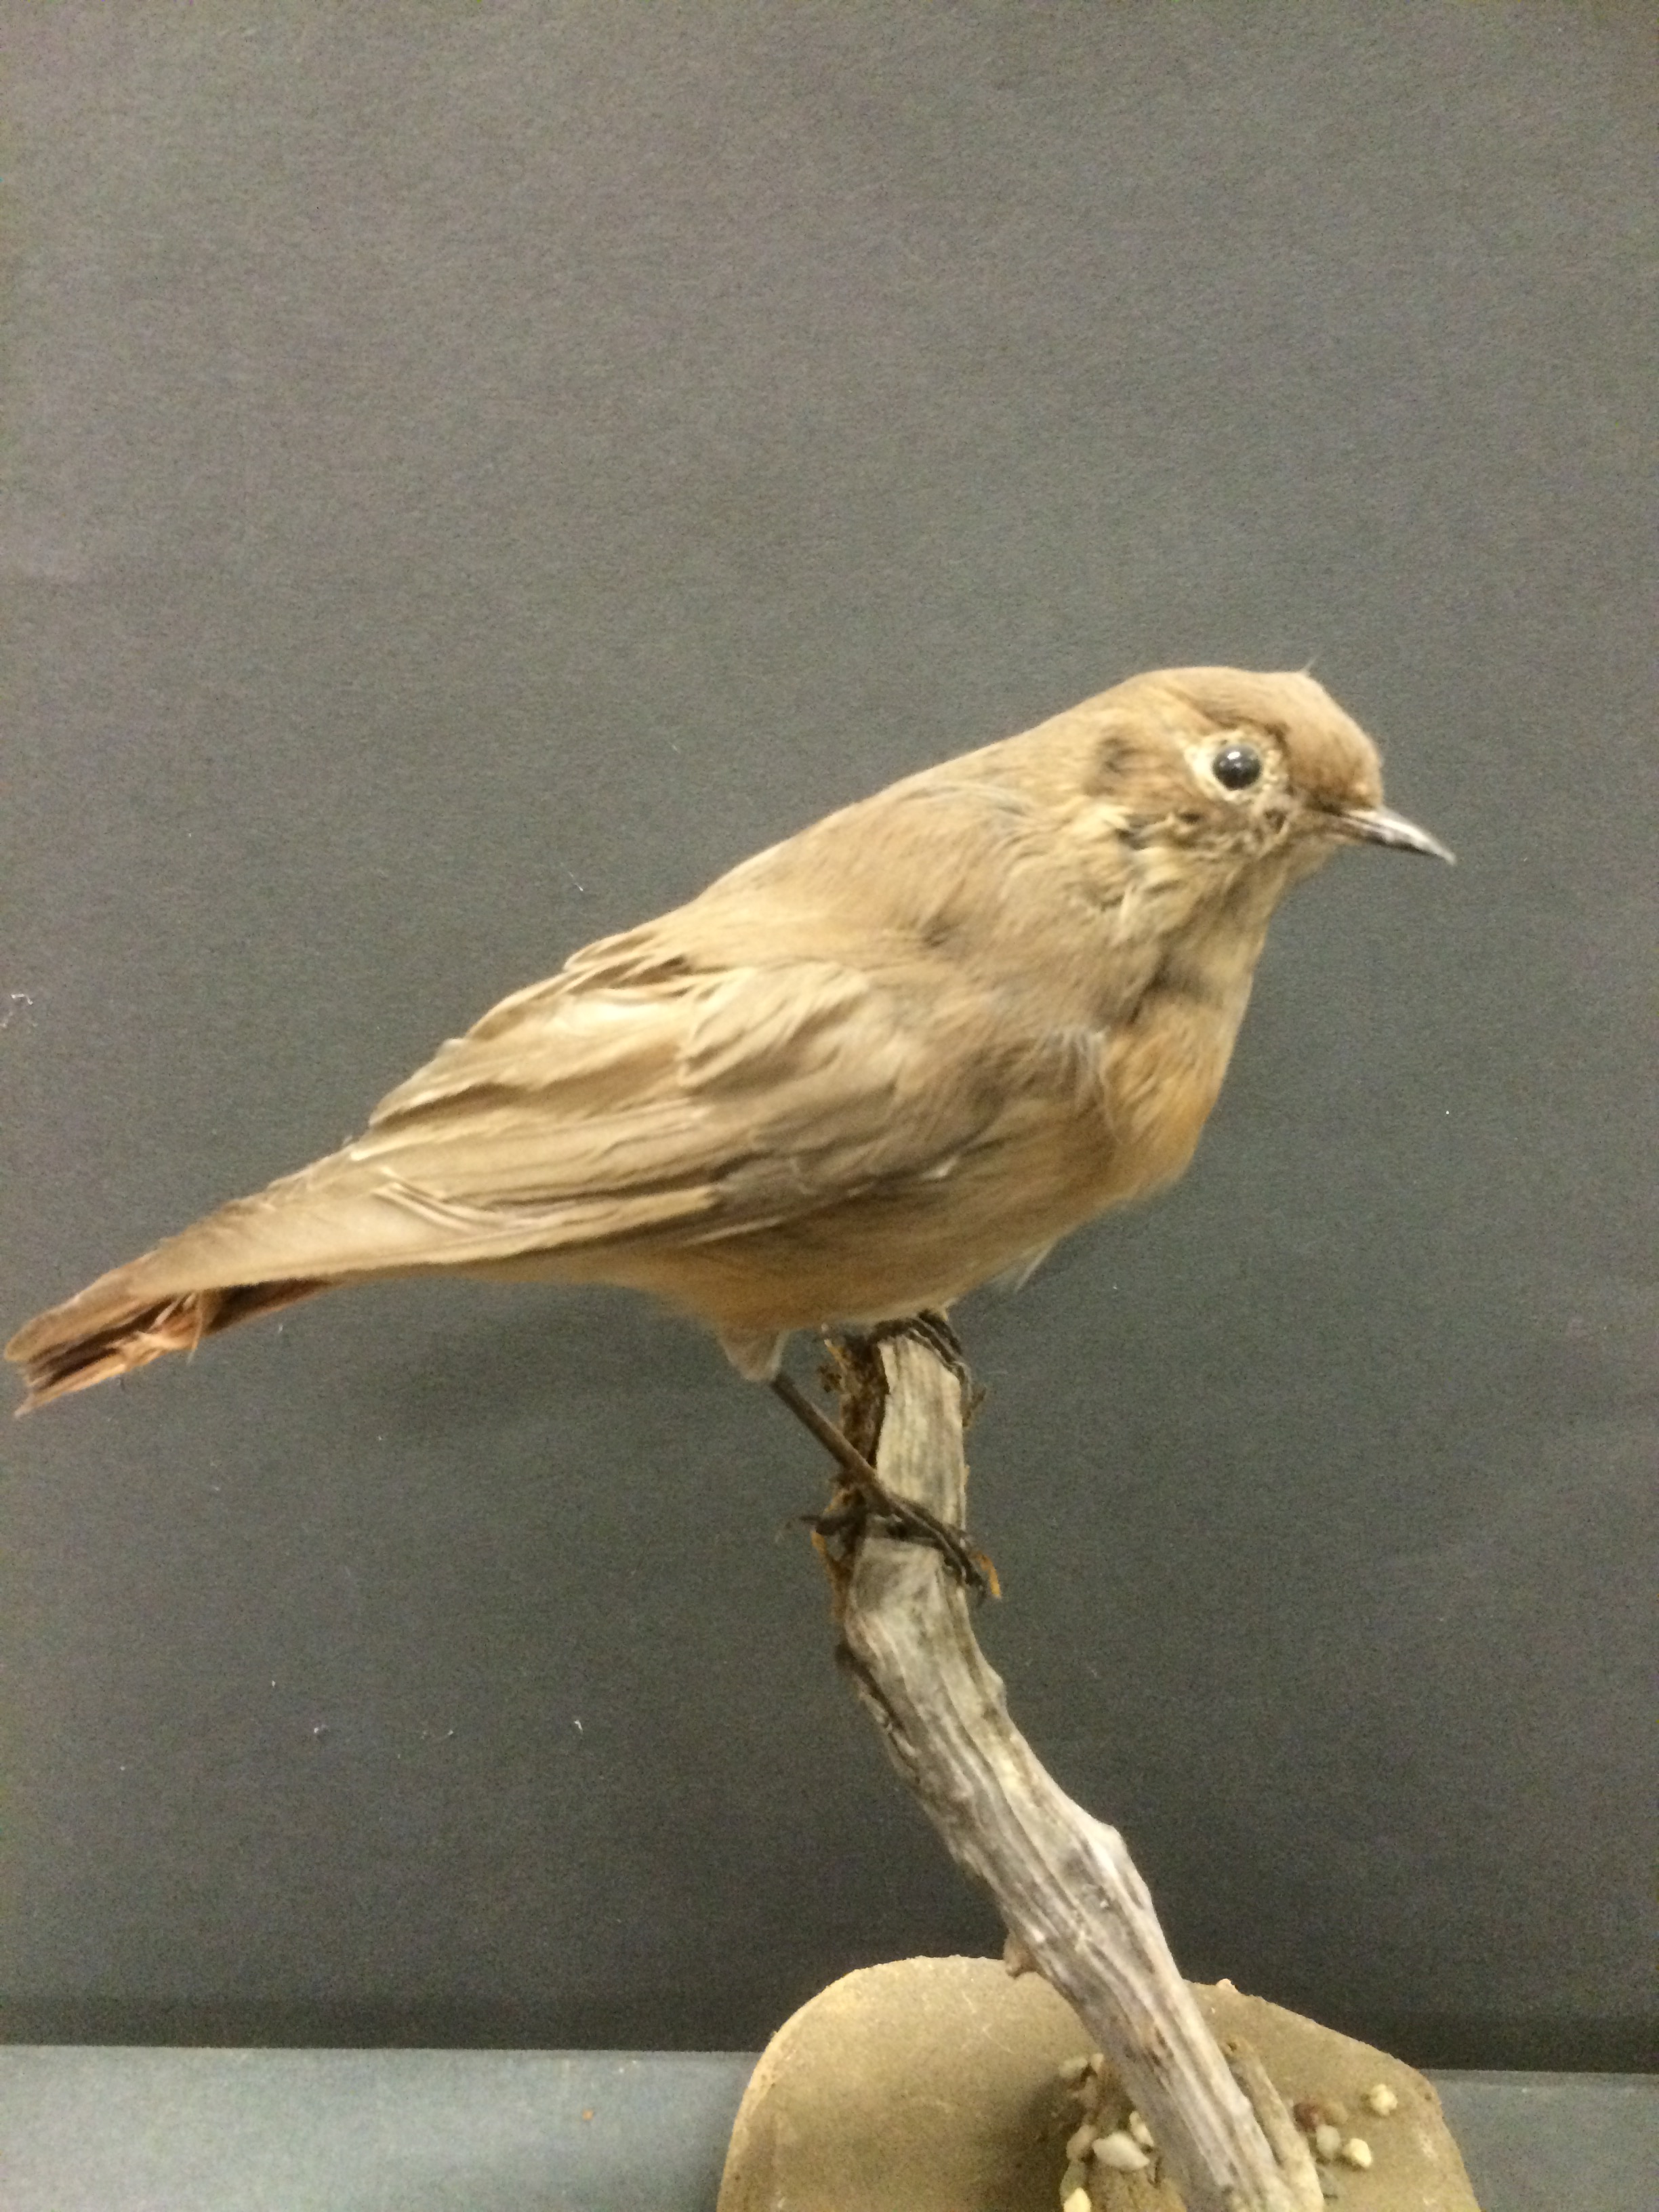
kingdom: Animalia
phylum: Chordata
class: Aves
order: Passeriformes
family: Muscicapidae
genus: Phoenicurus
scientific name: Phoenicurus erythrogastrus
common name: Güldenstädt's redstart
